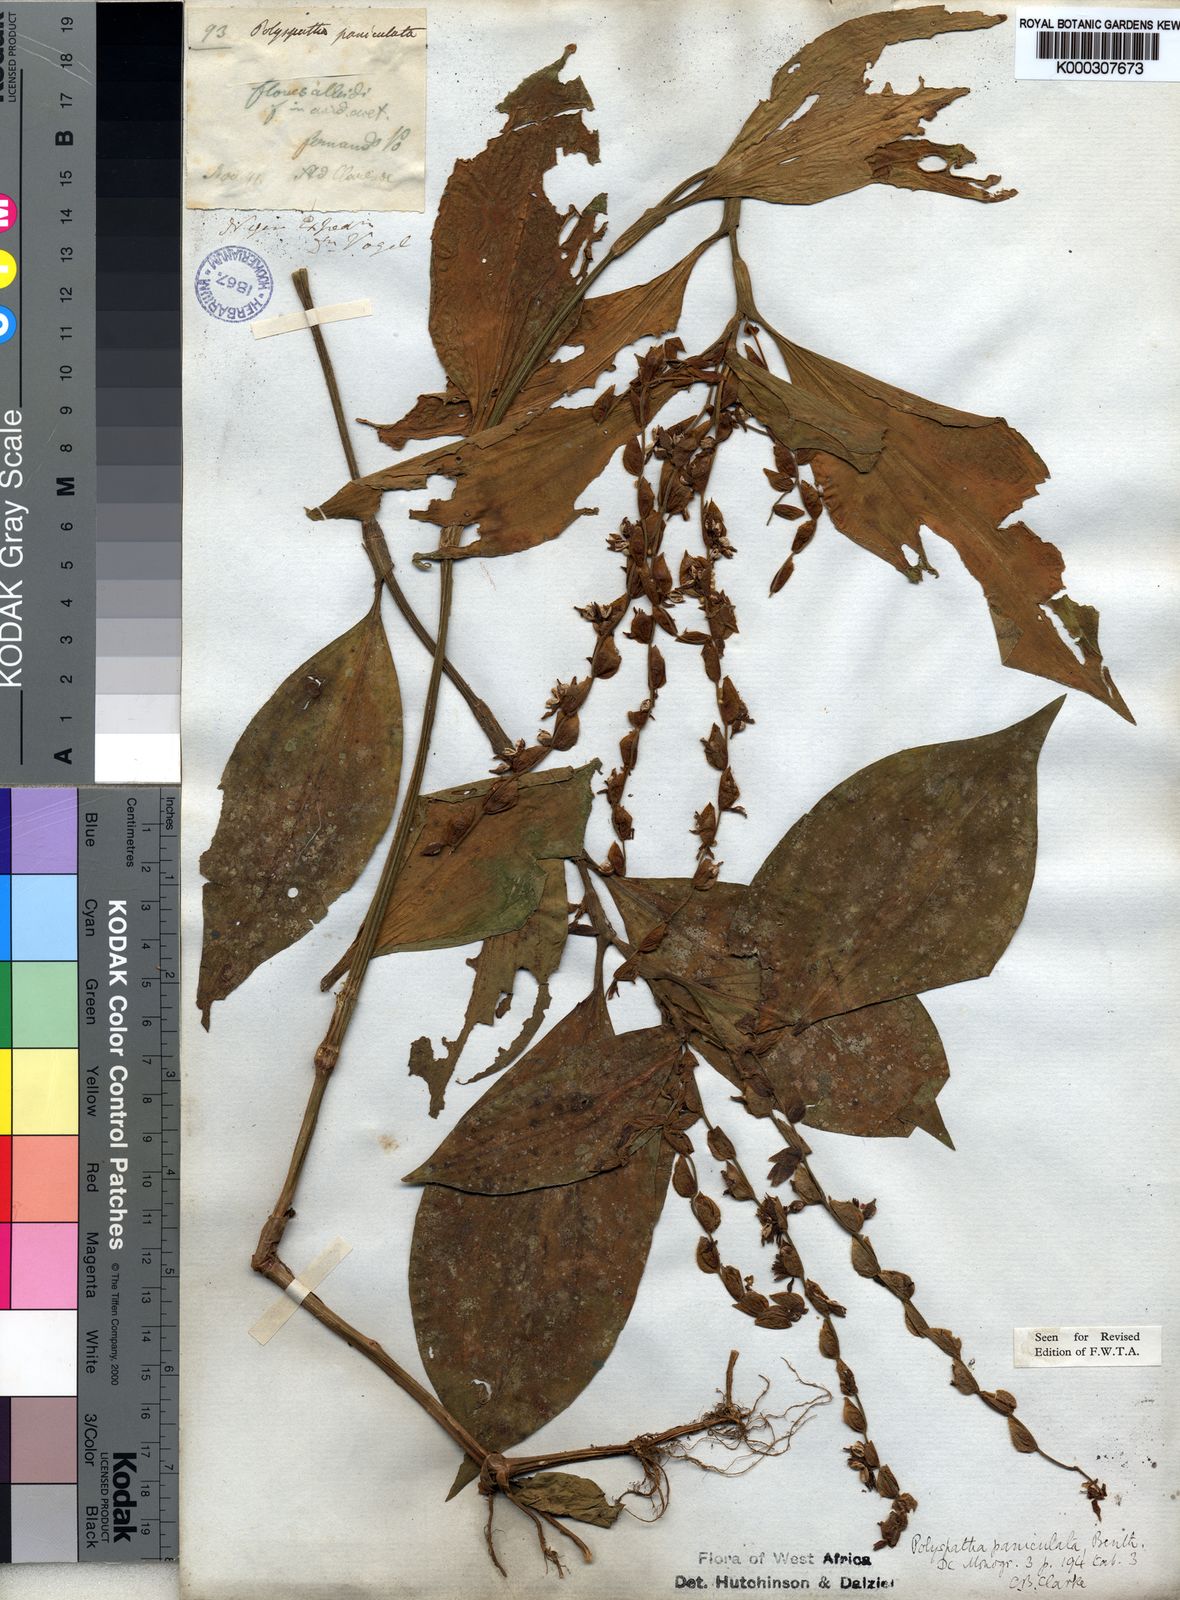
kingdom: Plantae
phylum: Tracheophyta
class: Liliopsida
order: Commelinales
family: Commelinaceae
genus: Polyspatha
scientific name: Polyspatha paniculata
